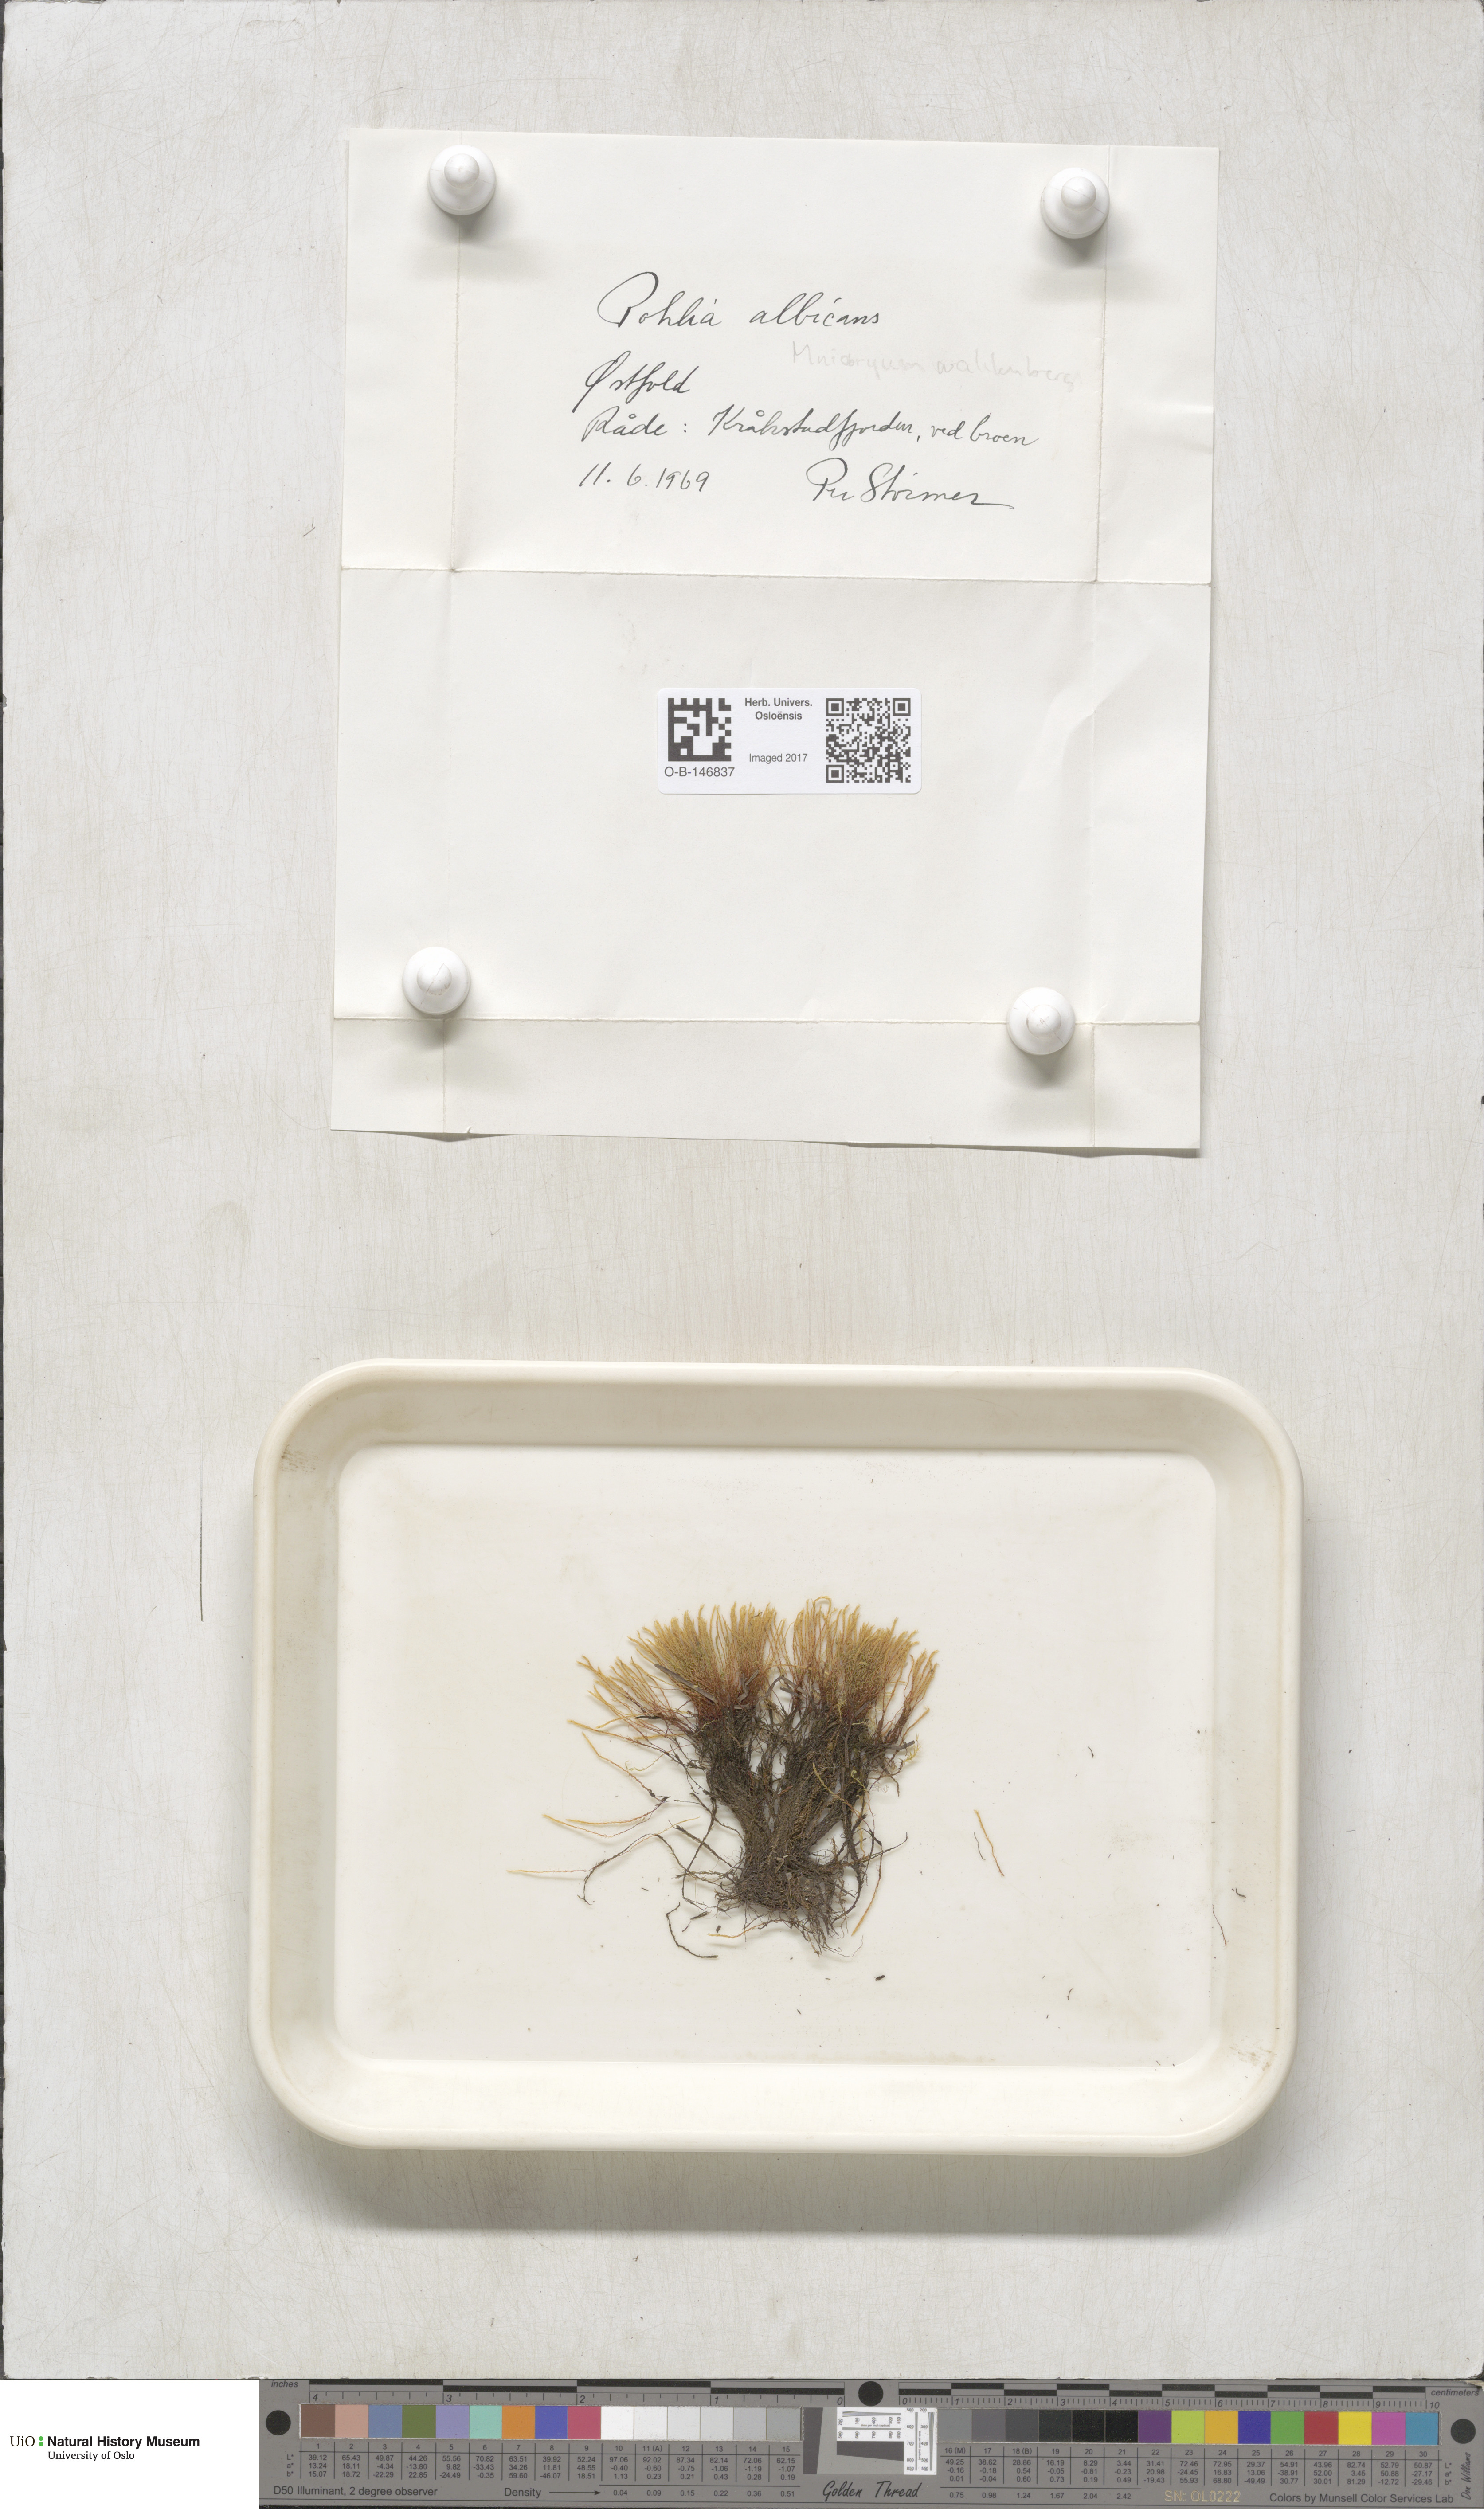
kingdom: Plantae
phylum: Bryophyta
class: Bryopsida
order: Bryales
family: Mniaceae
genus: Pohlia
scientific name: Pohlia wahlenbergii
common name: Wahlenberg's nodding moss
